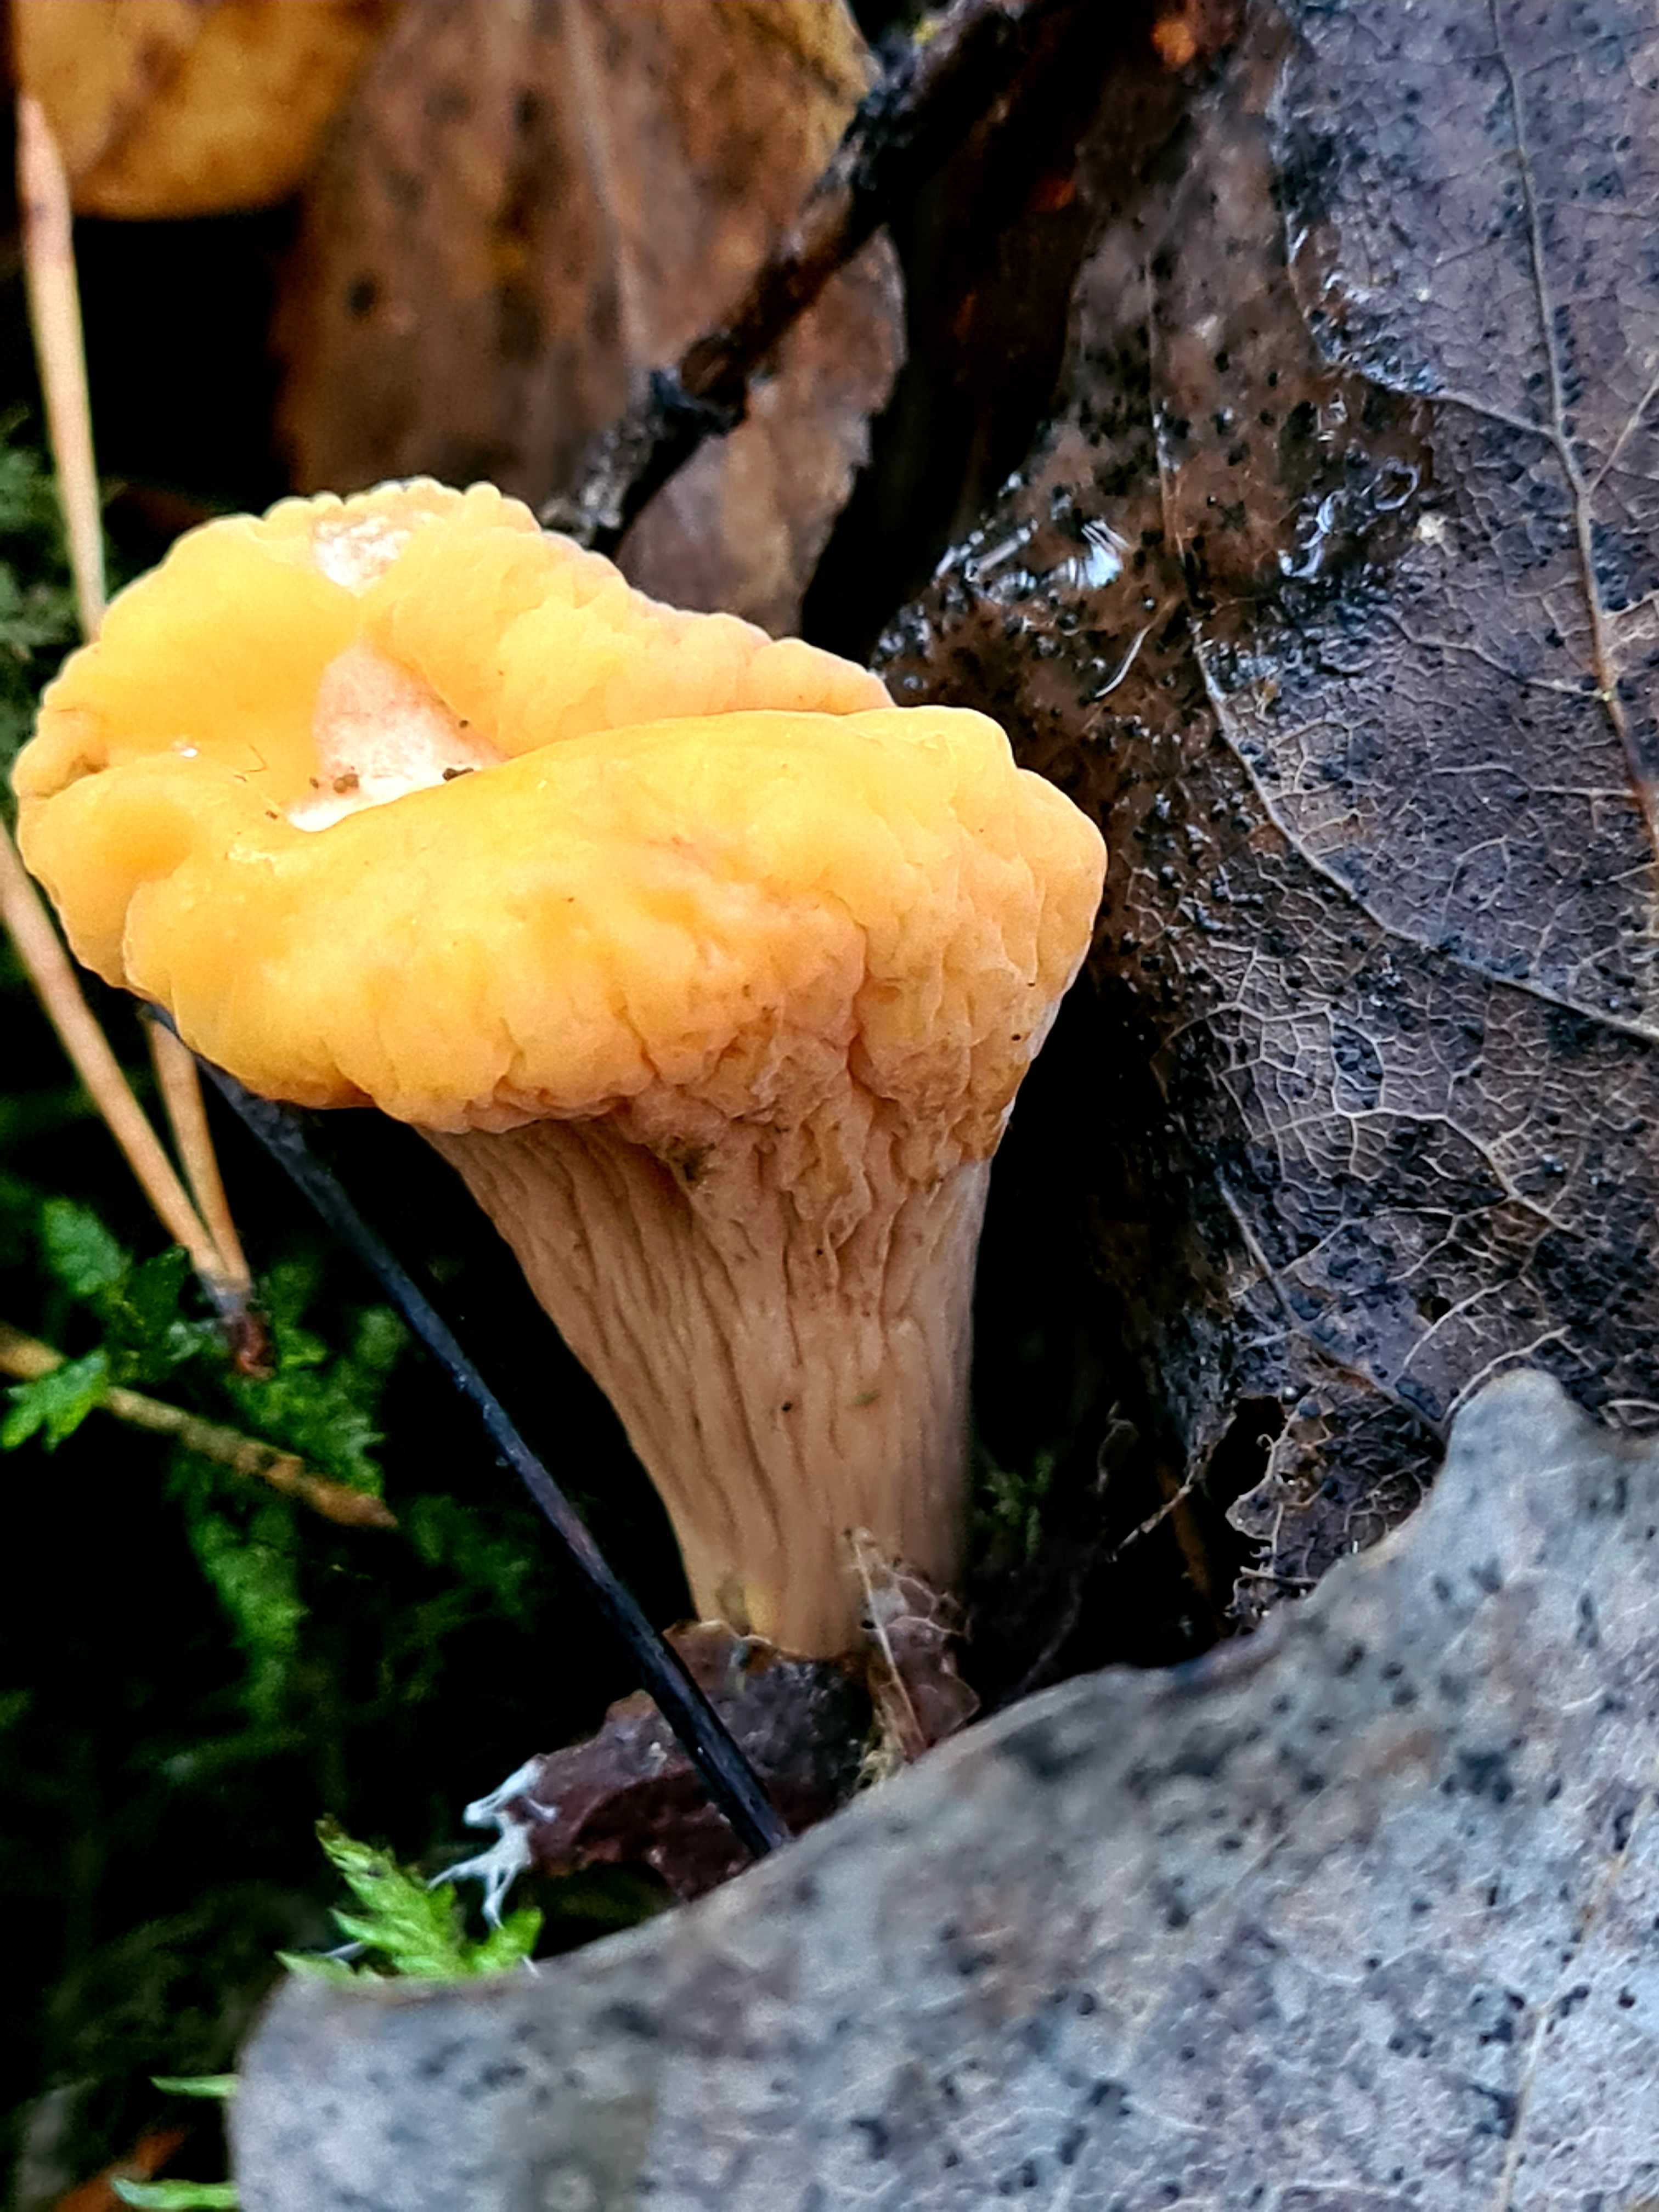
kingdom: Fungi
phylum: Basidiomycota
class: Agaricomycetes
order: Gomphales
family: Clavariadelphaceae
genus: Clavariadelphus
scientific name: Clavariadelphus truncatus
